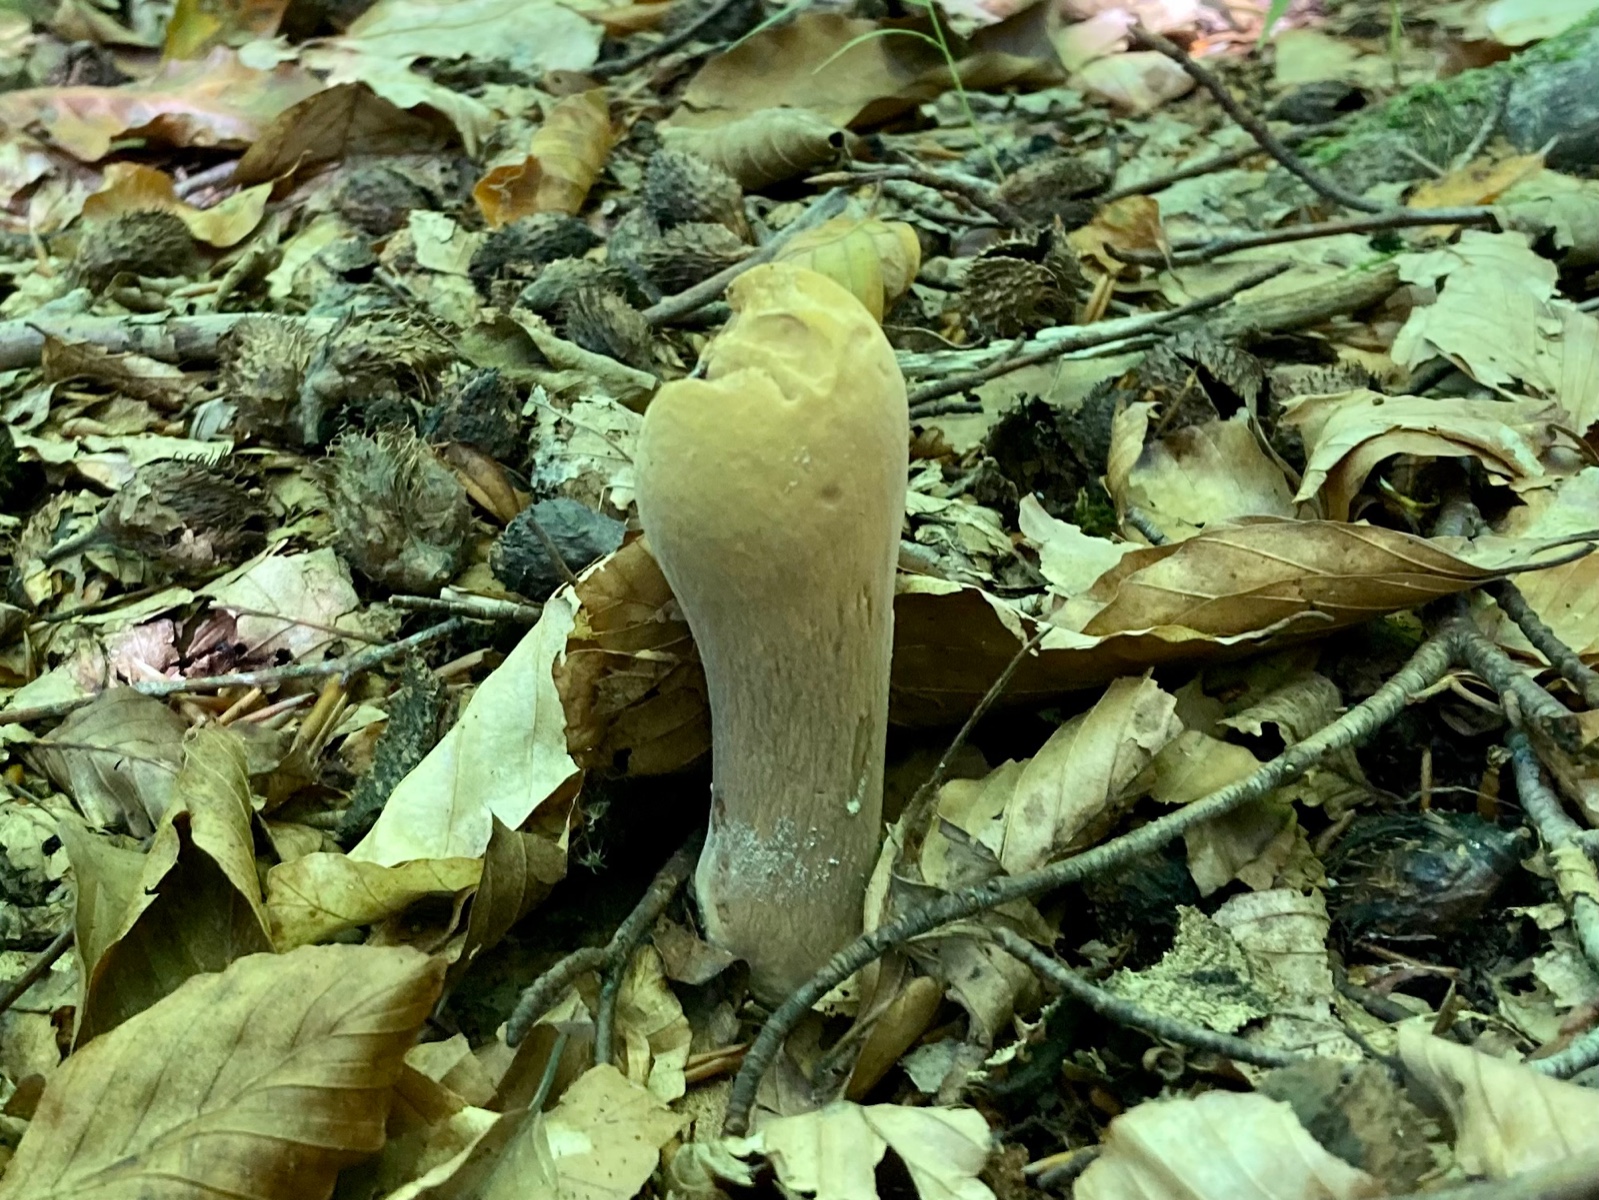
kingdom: Fungi
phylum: Basidiomycota
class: Agaricomycetes
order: Gomphales
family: Clavariadelphaceae
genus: Clavariadelphus
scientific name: Clavariadelphus pistillaris
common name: herkules-kæmpekølle
